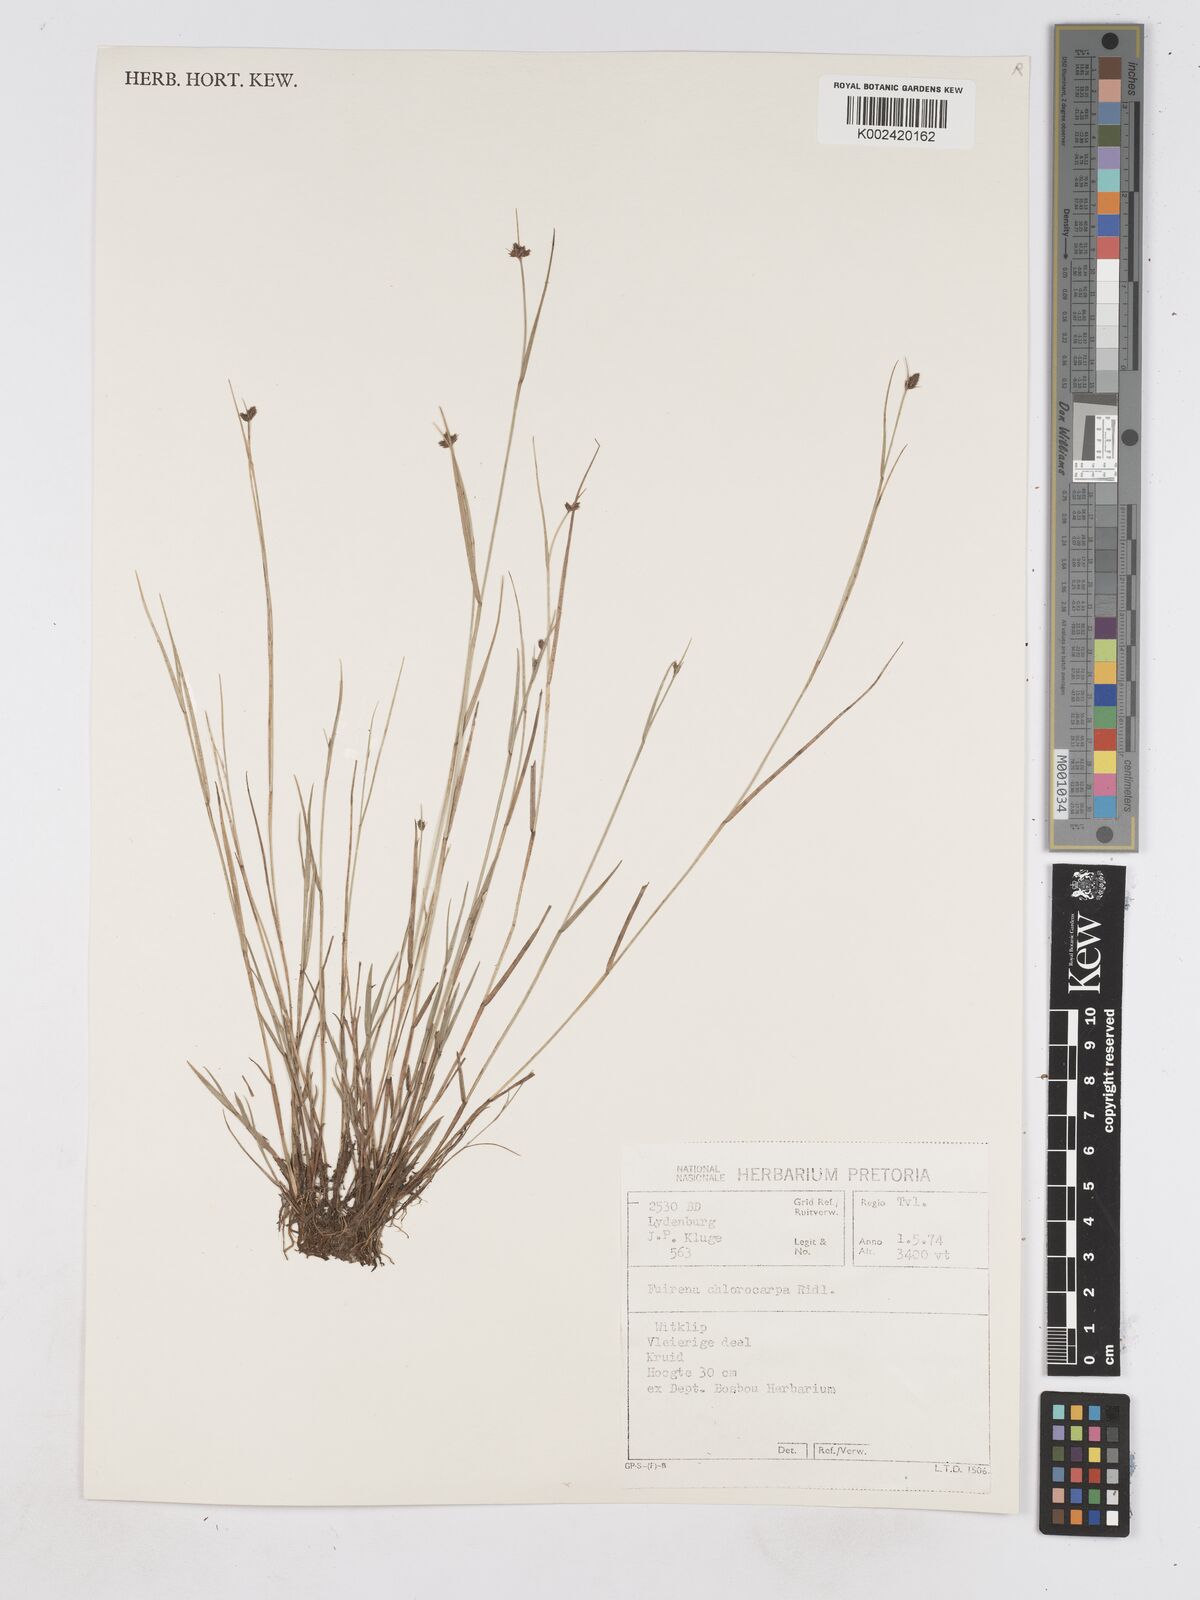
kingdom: Plantae
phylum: Tracheophyta
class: Liliopsida
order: Poales
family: Cyperaceae
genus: Fuirena
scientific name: Fuirena stricta
